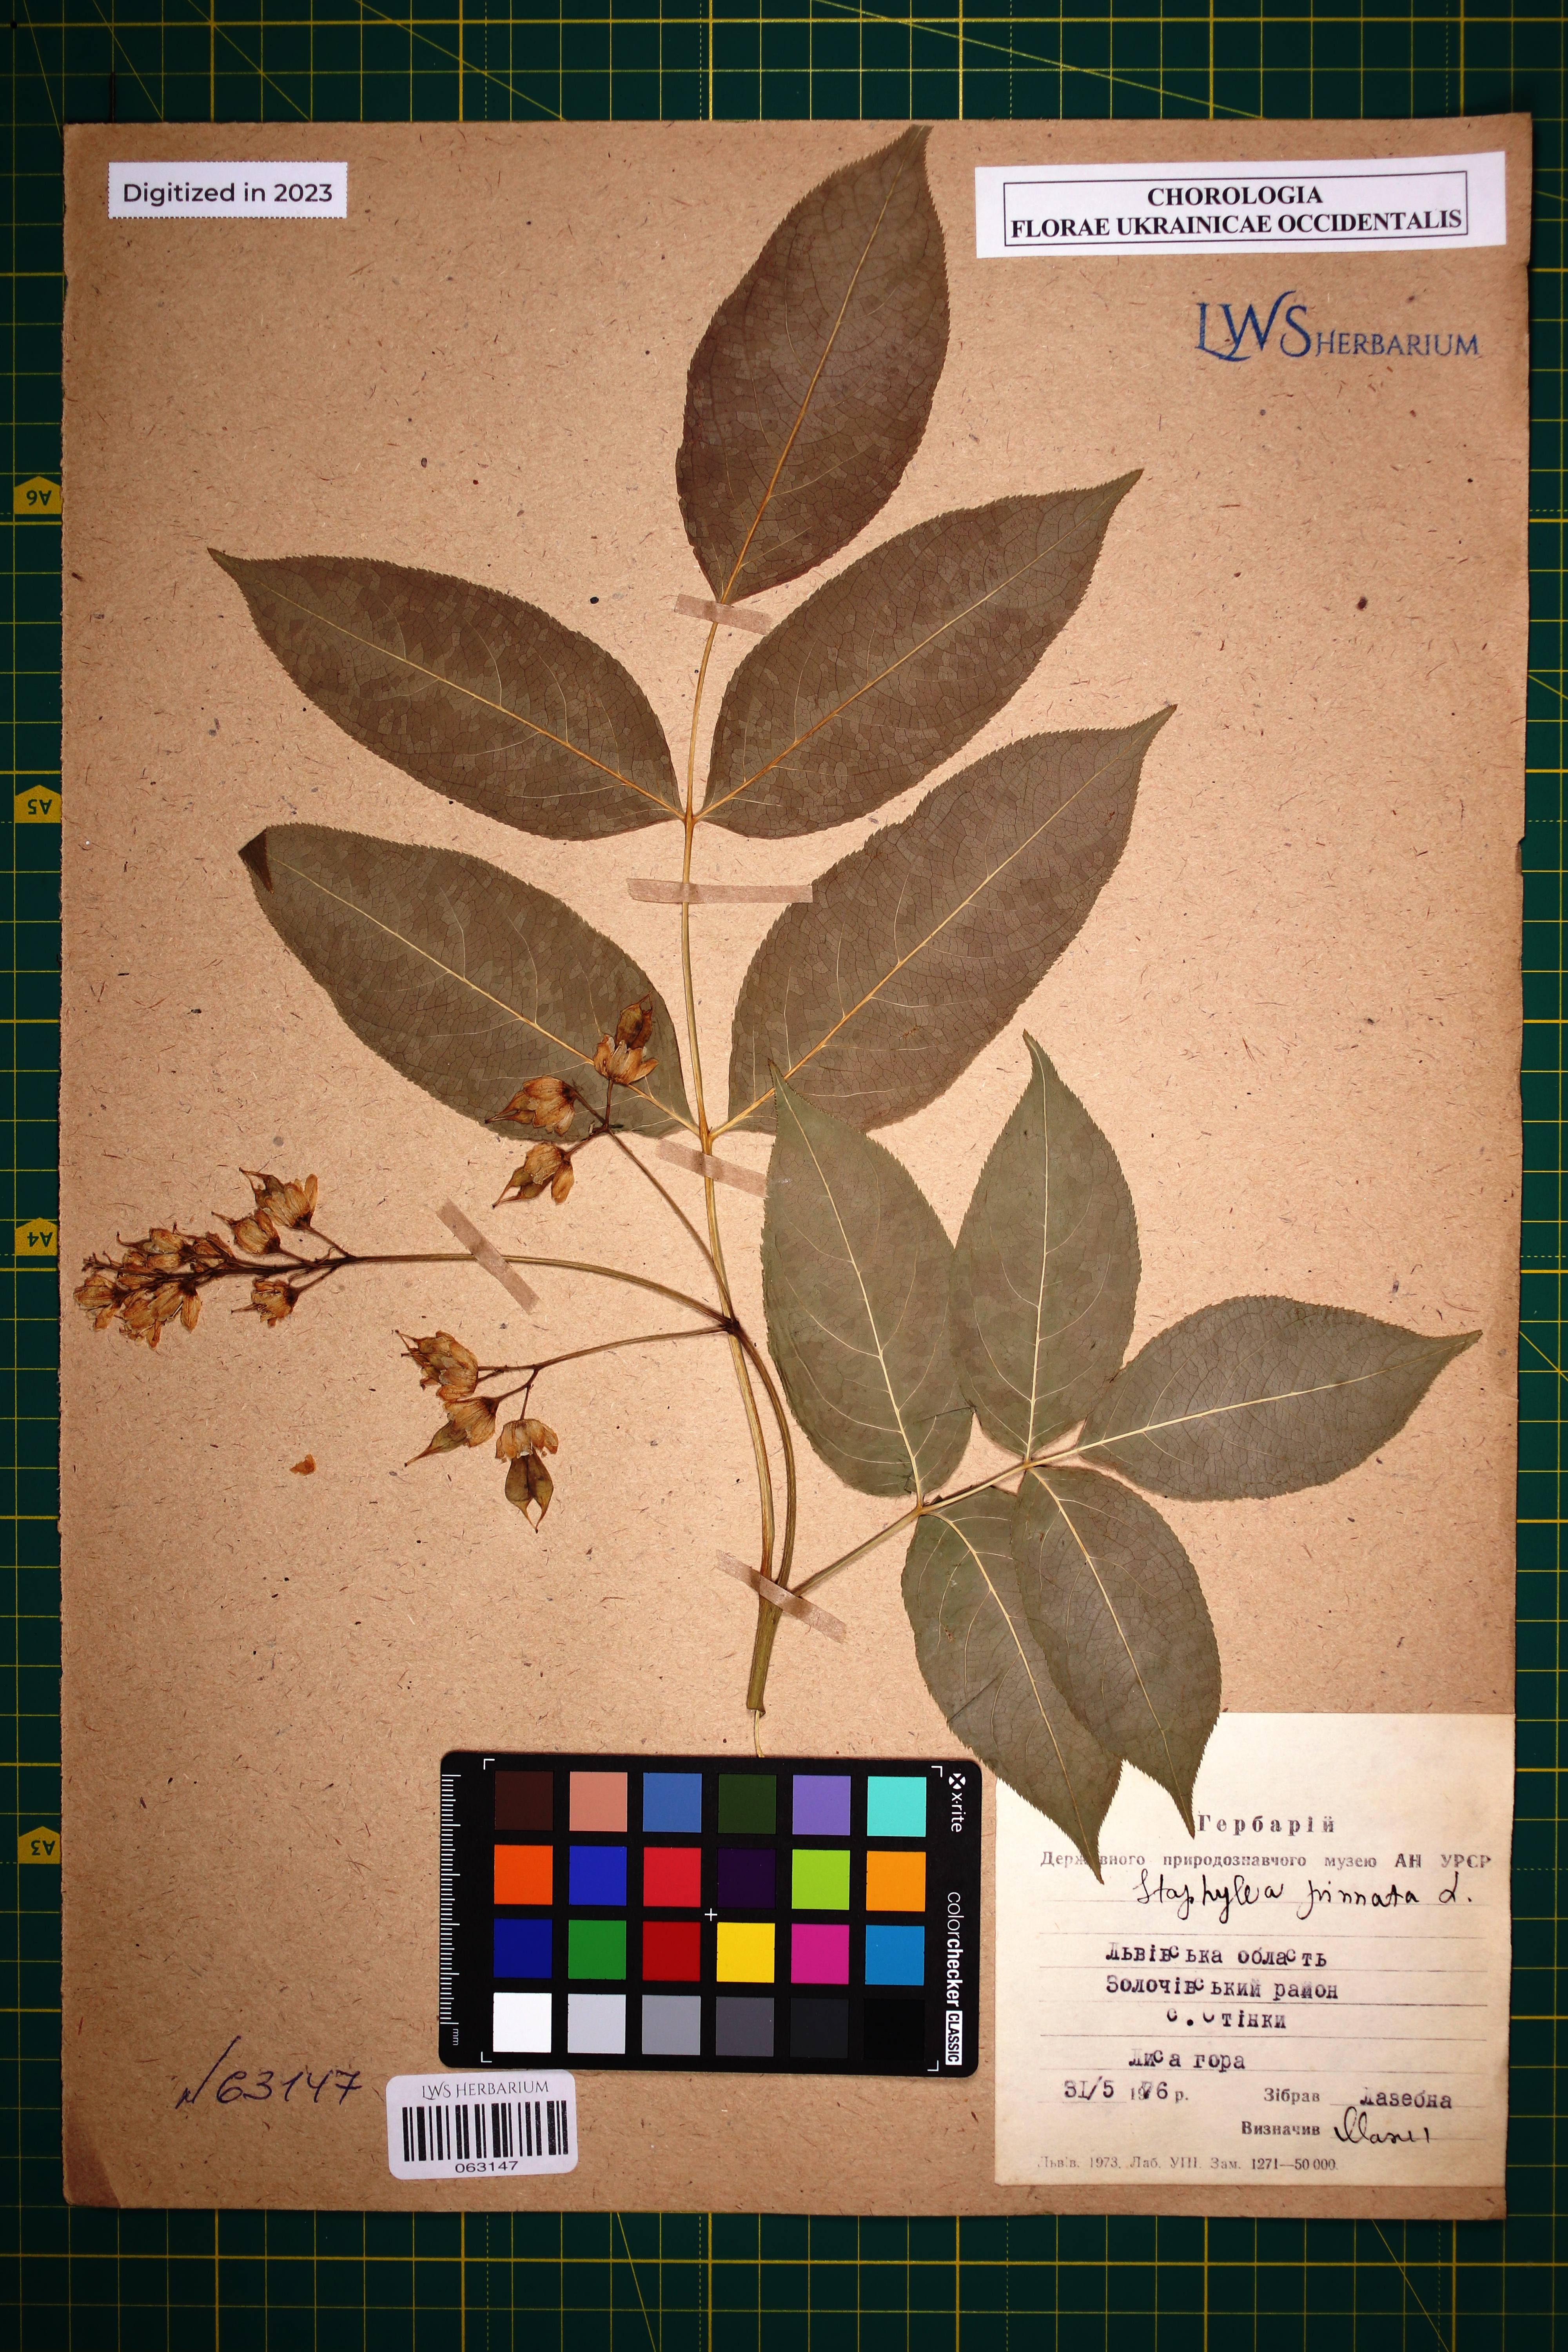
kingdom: Plantae
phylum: Tracheophyta
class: Magnoliopsida
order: Crossosomatales
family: Staphyleaceae
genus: Staphylea
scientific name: Staphylea pinnata
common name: Bladdernut
